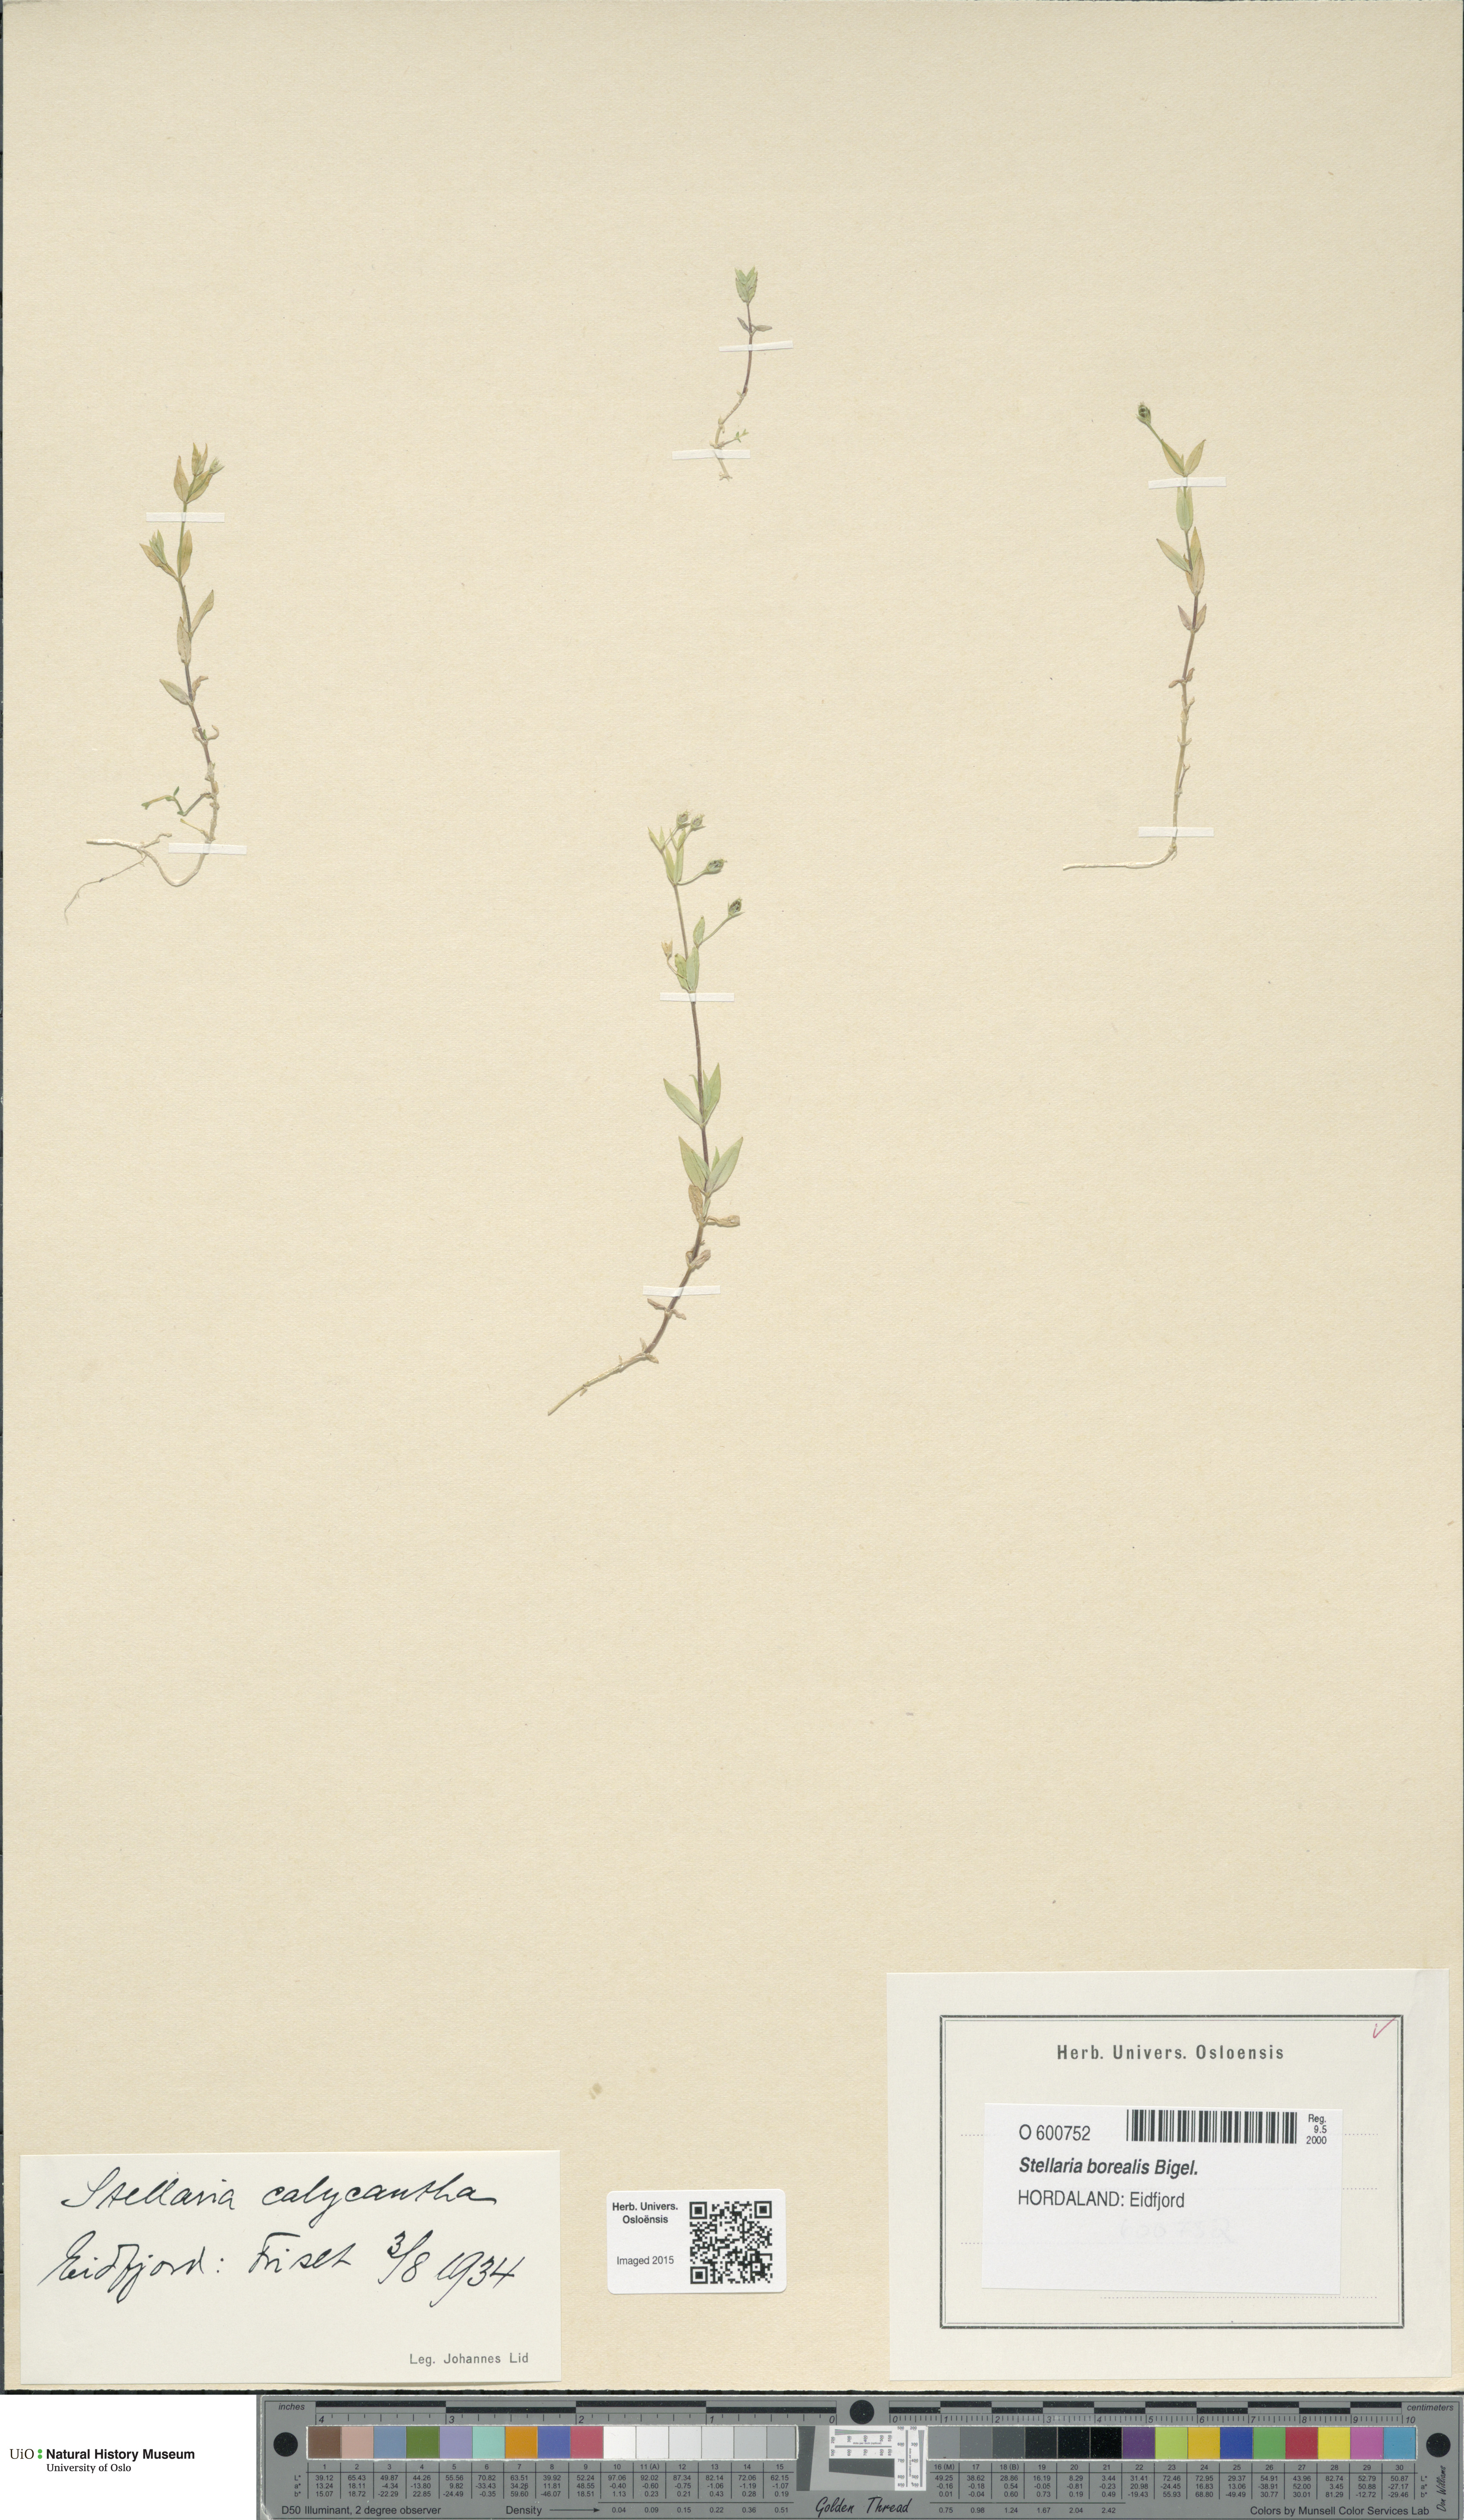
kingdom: Plantae
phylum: Tracheophyta
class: Magnoliopsida
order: Caryophyllales
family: Caryophyllaceae
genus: Stellaria
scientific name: Stellaria borealis
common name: Boreal starwort
